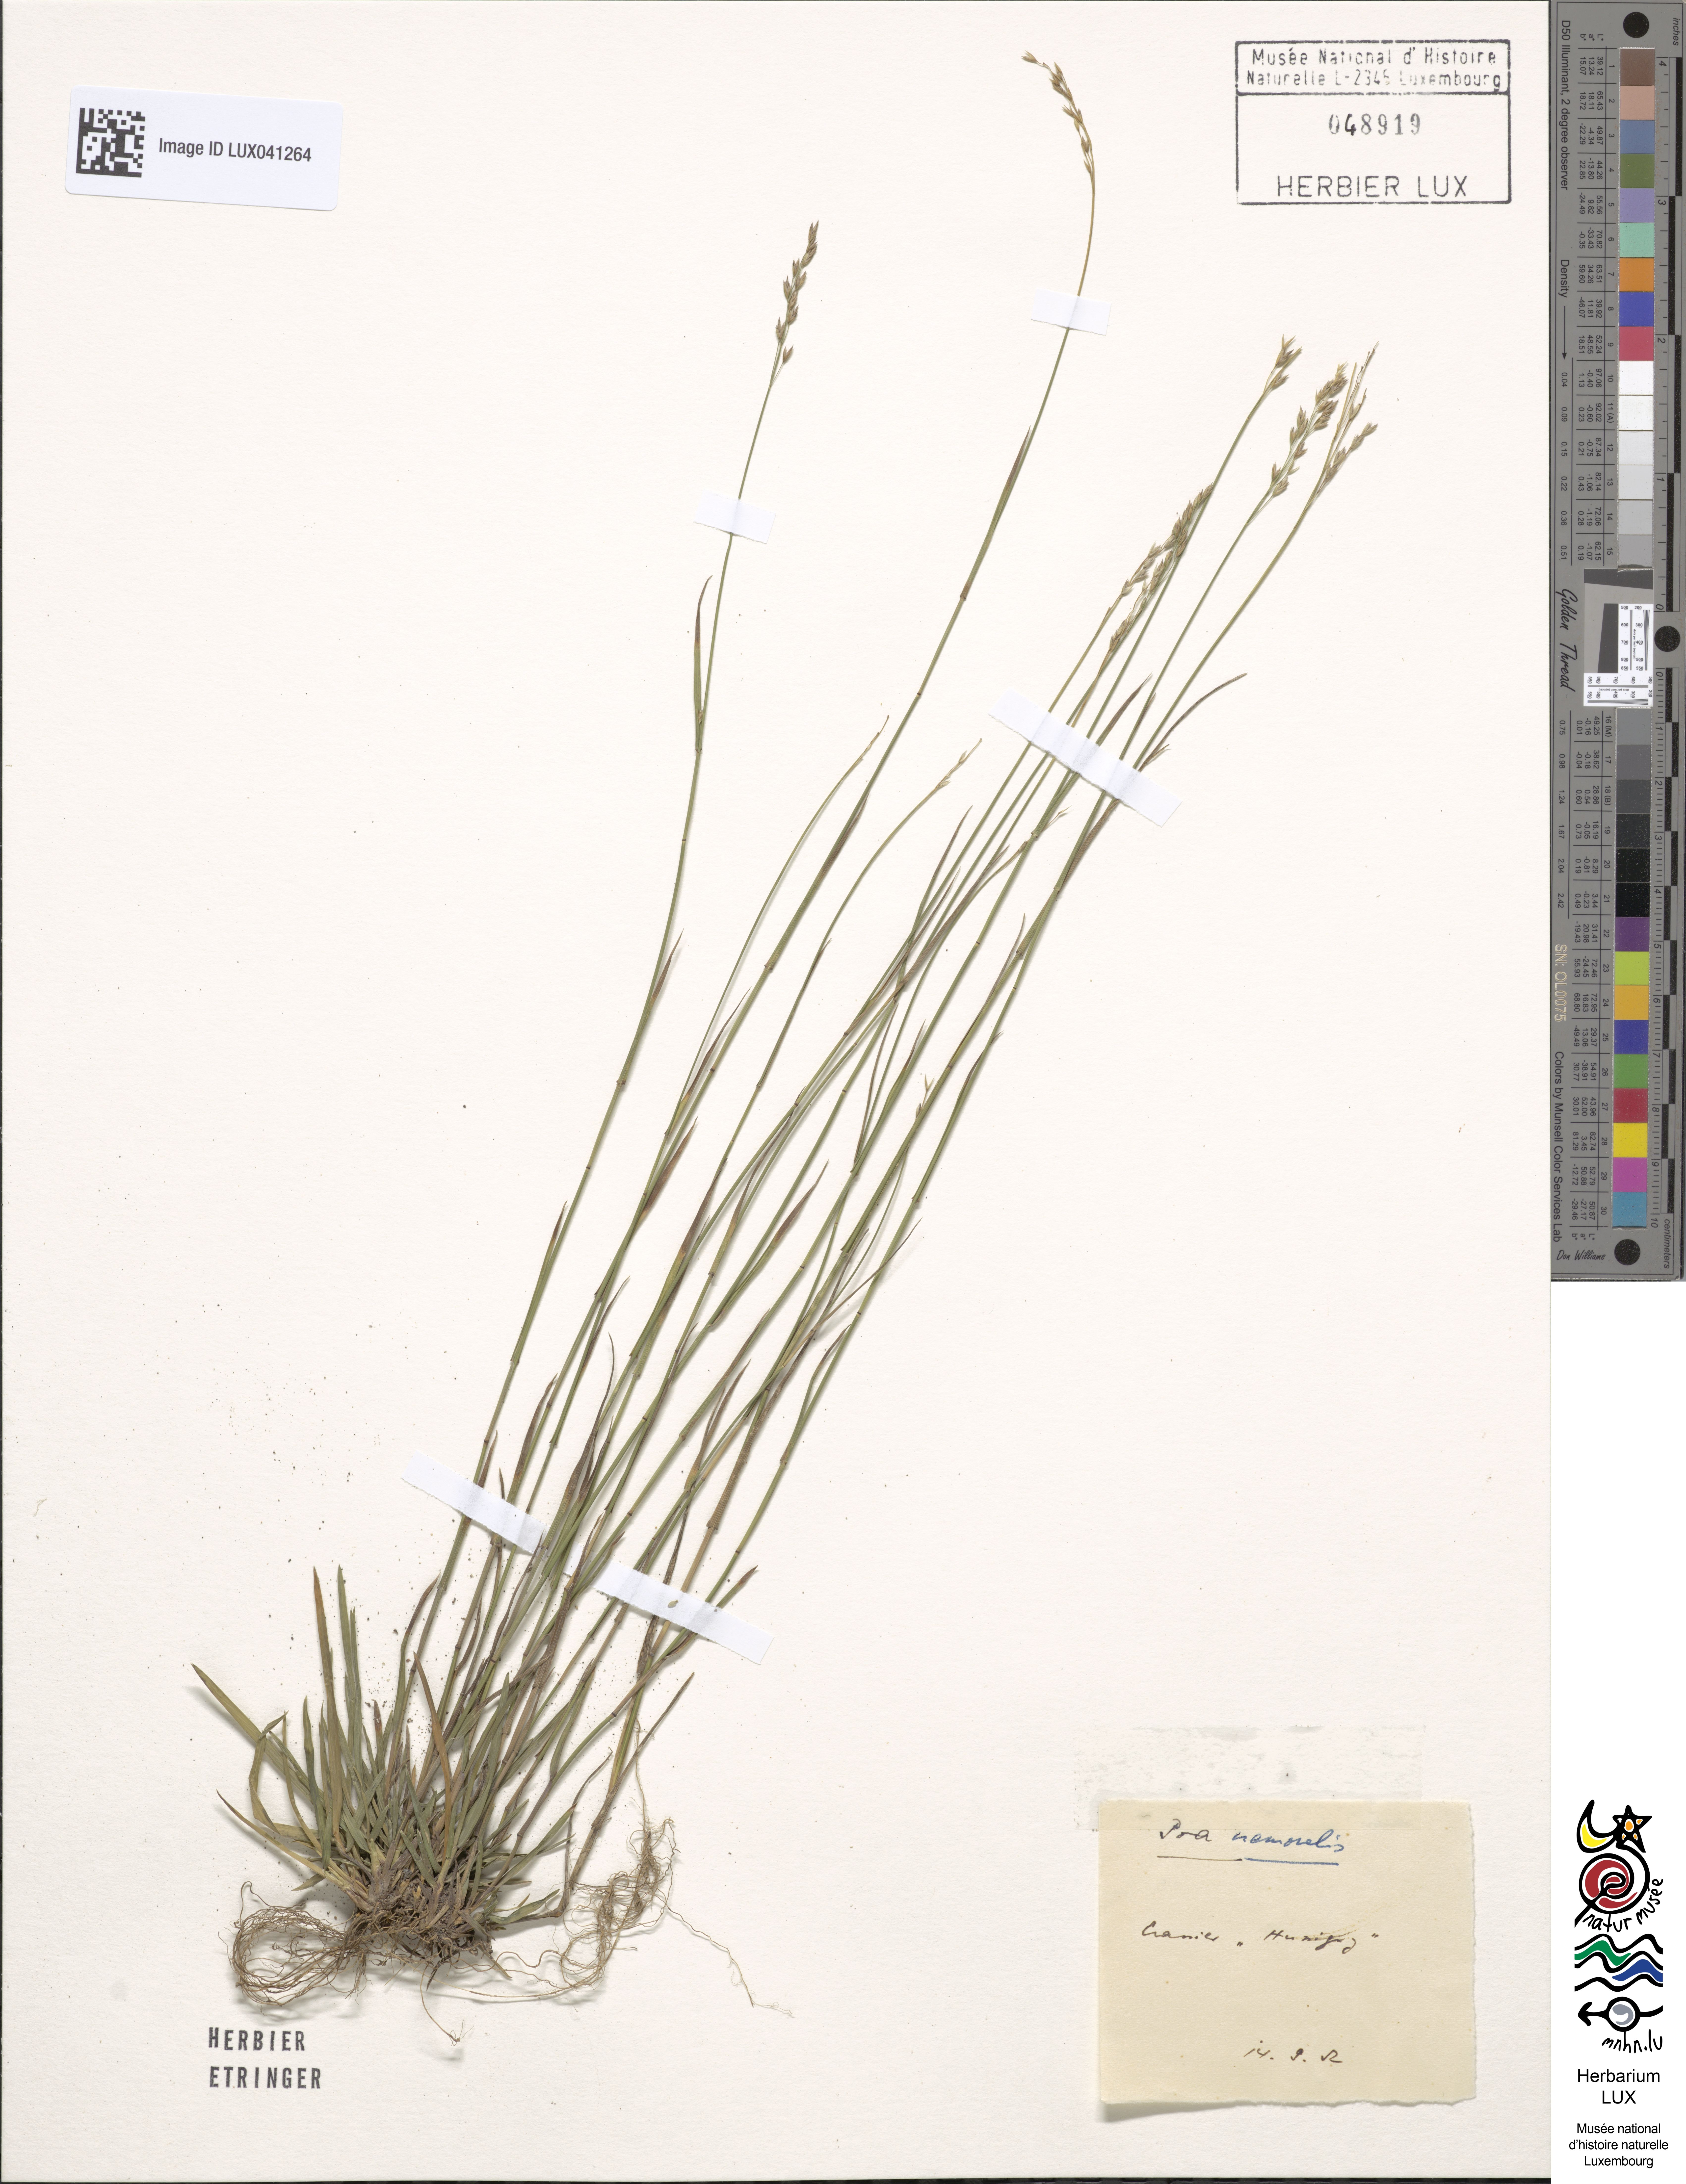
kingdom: Plantae
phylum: Tracheophyta
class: Liliopsida
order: Poales
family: Poaceae
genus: Poa
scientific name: Poa nemoralis
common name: Wood bluegrass
